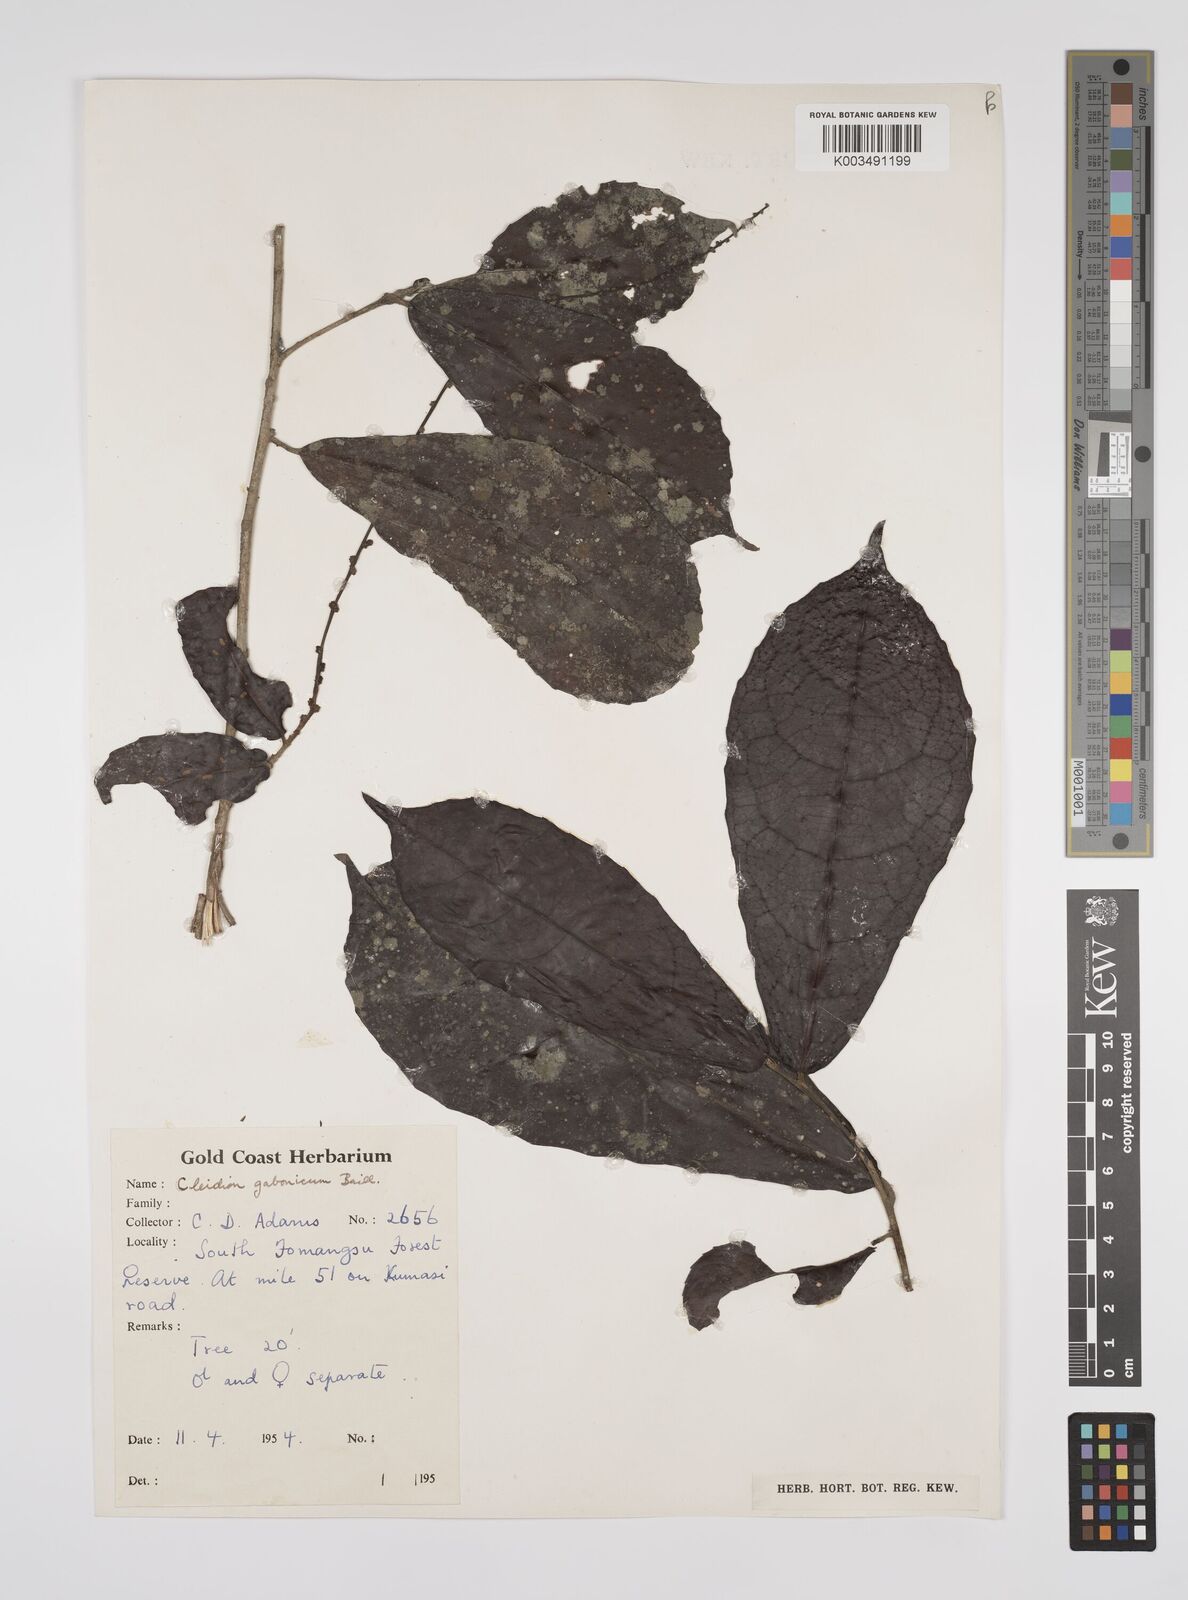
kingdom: Plantae
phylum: Tracheophyta
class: Magnoliopsida
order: Malpighiales
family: Euphorbiaceae
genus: Cleidion
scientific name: Cleidion gabonicum
